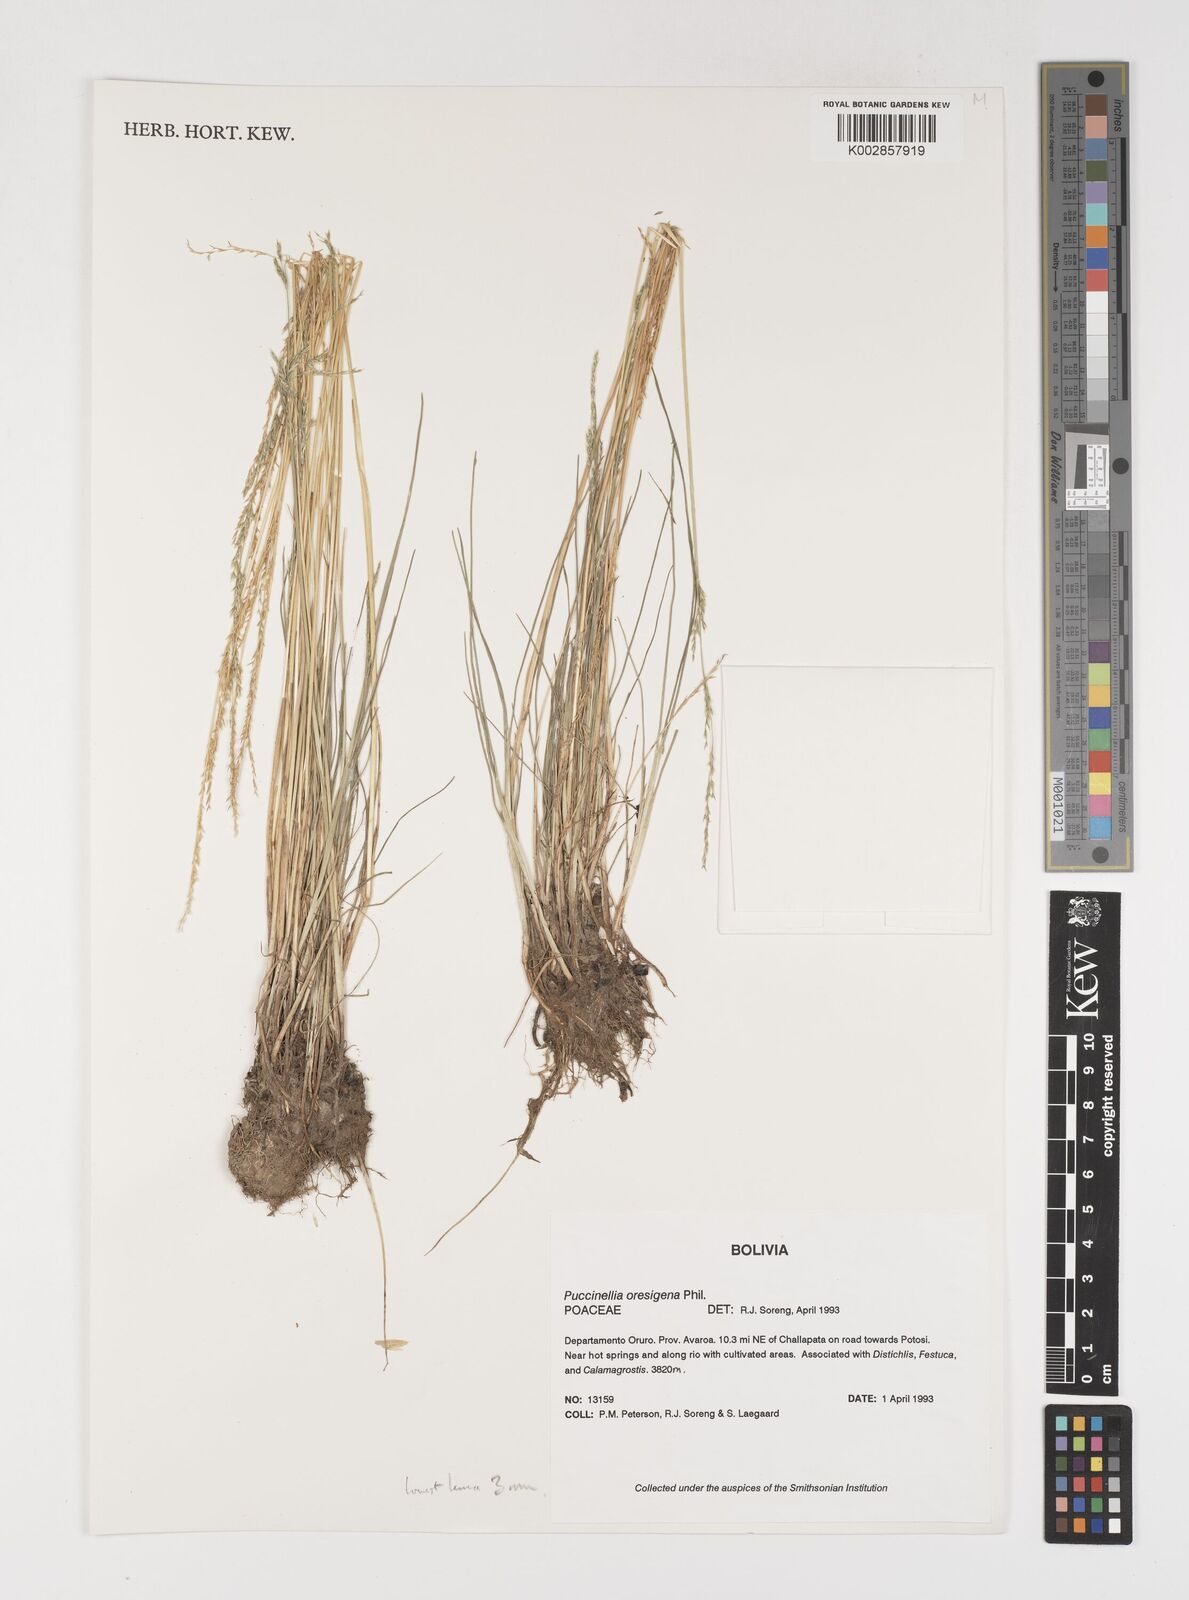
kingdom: Plantae
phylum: Tracheophyta
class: Liliopsida
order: Poales
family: Poaceae
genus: Puccinellia
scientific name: Puccinellia argentinensis
